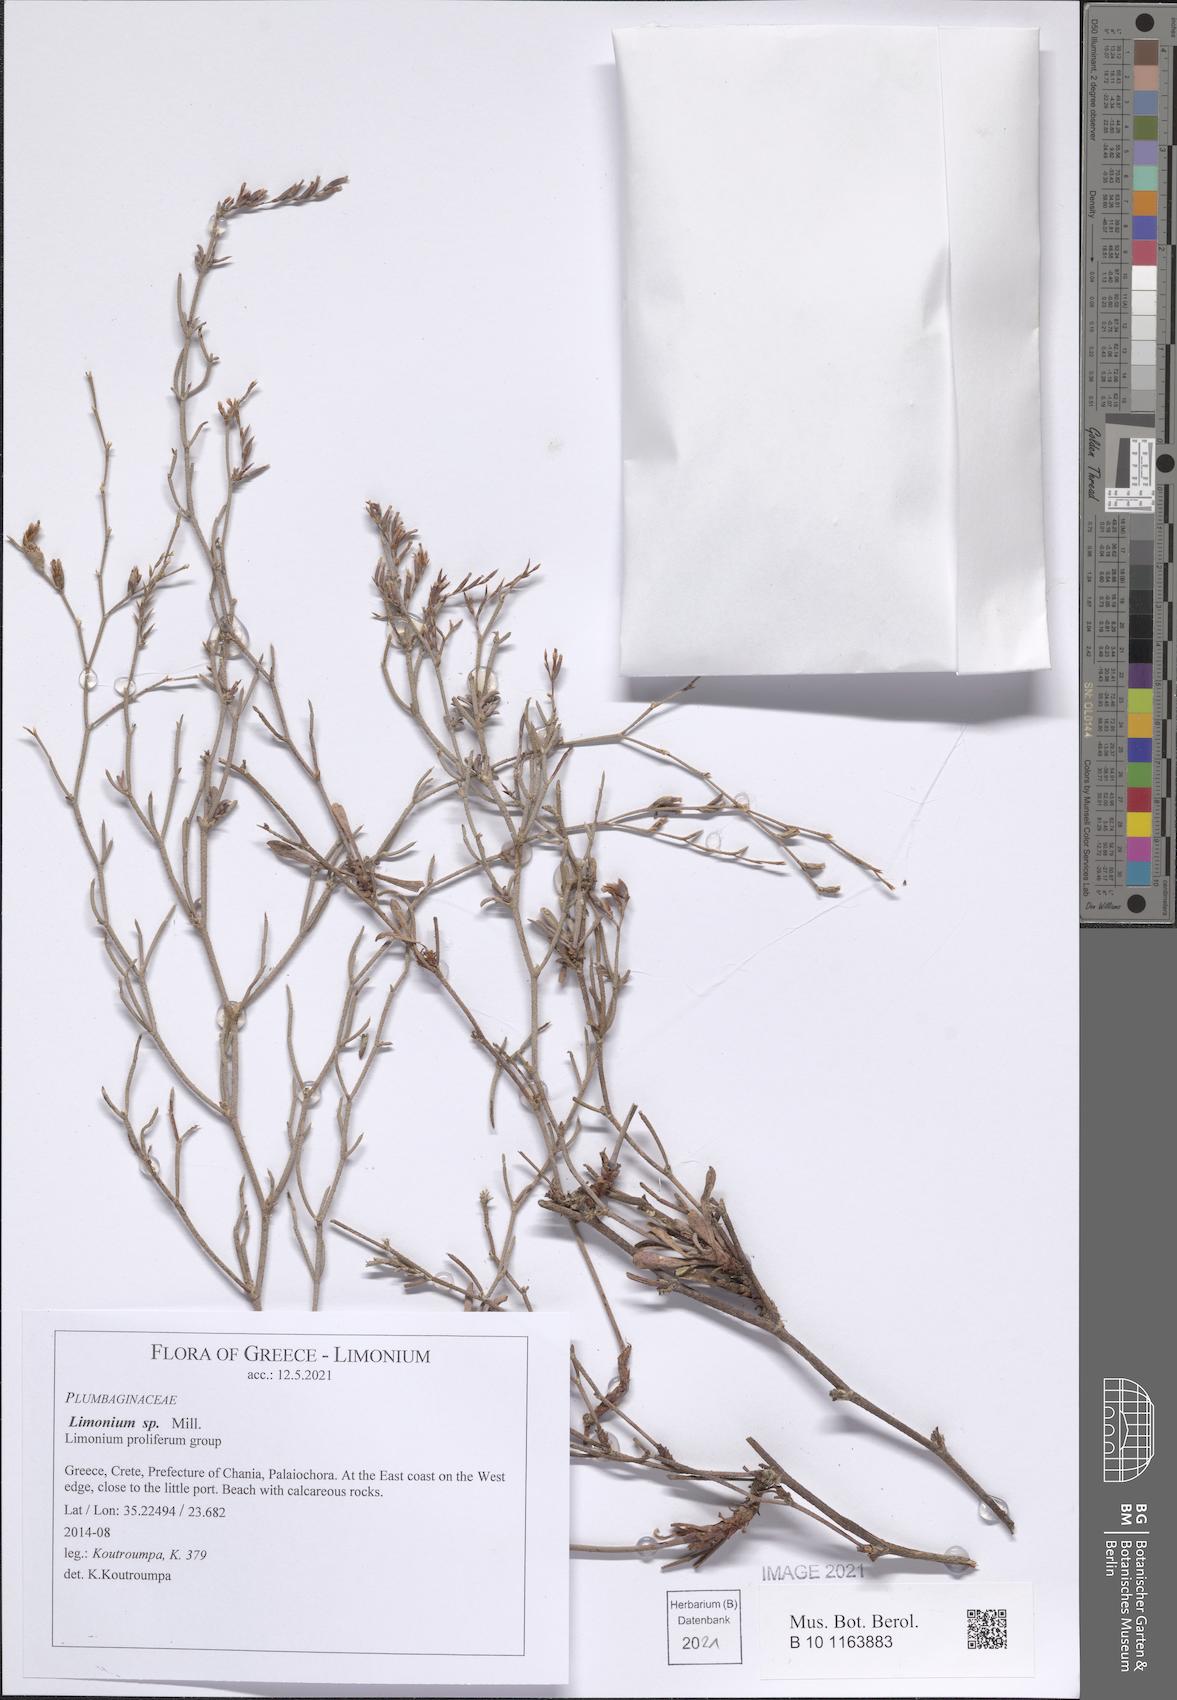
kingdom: Plantae
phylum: Tracheophyta
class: Magnoliopsida
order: Caryophyllales
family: Plumbaginaceae
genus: Limonium
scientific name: Limonium
